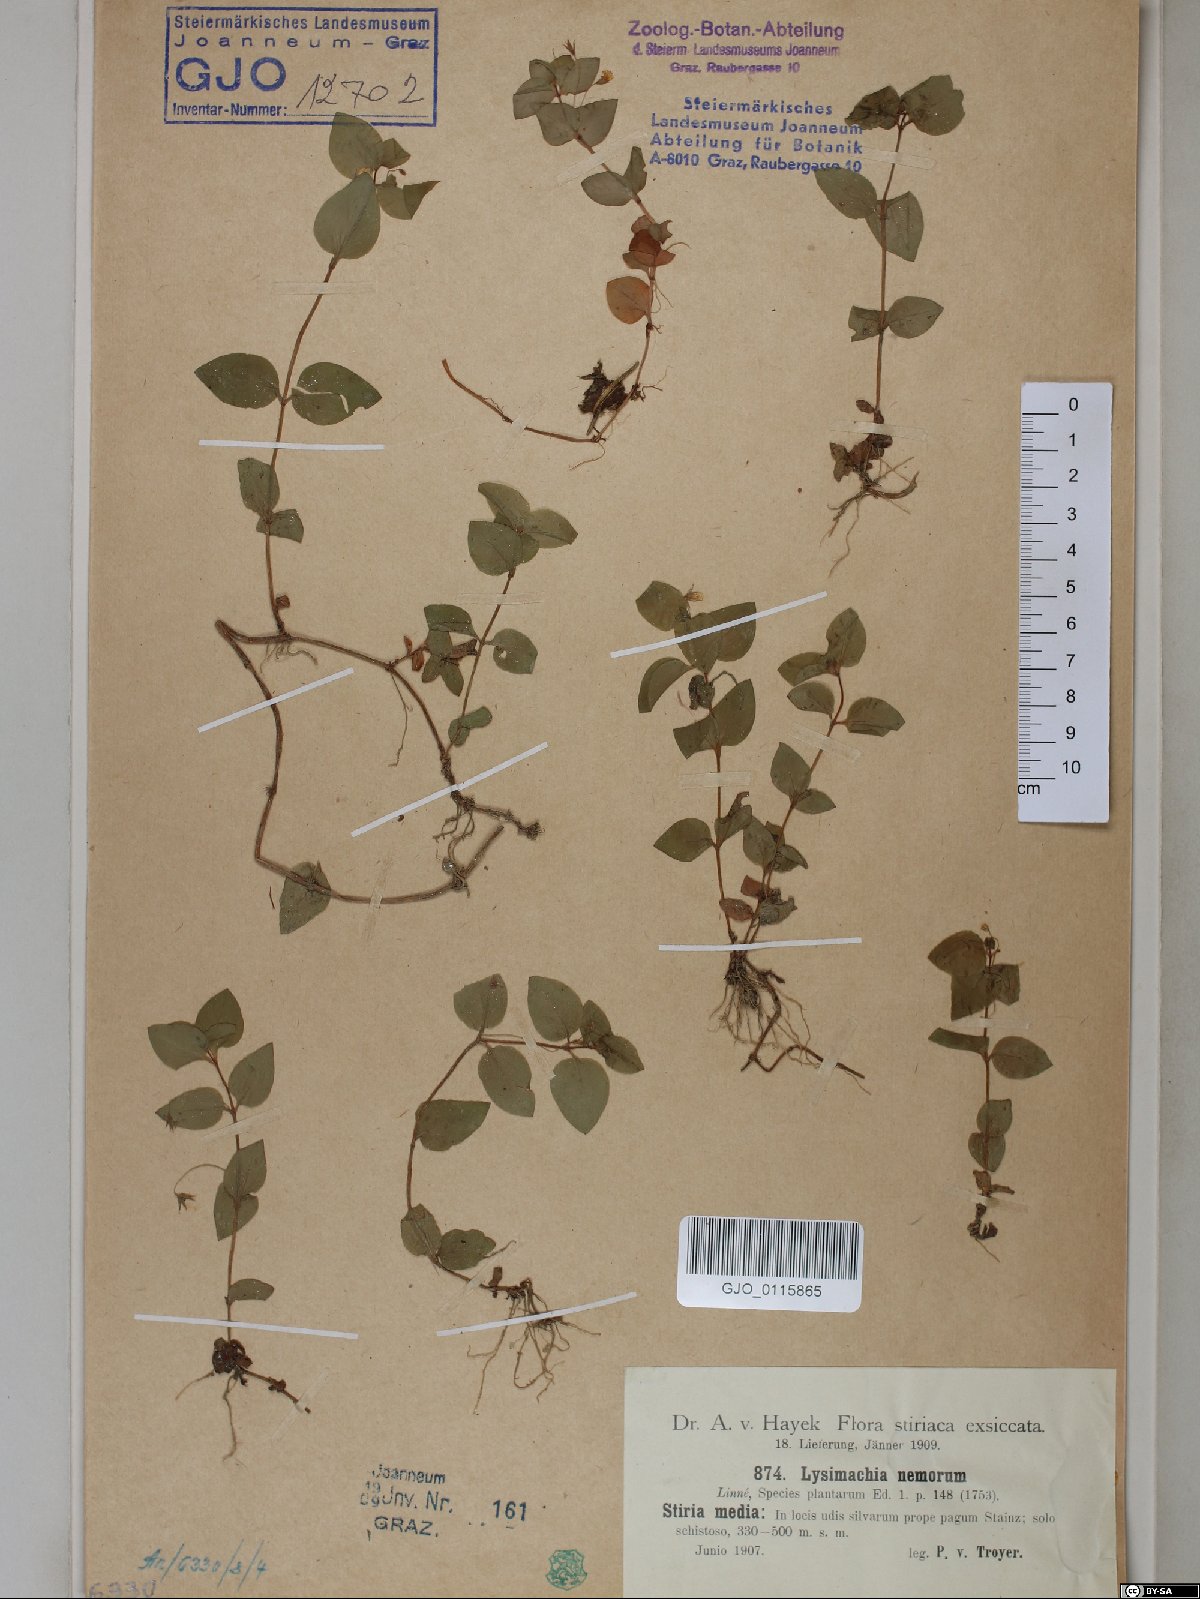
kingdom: Plantae
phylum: Tracheophyta
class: Magnoliopsida
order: Ericales
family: Primulaceae
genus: Lysimachia
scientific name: Lysimachia nemorum
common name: Yellow pimpernel
